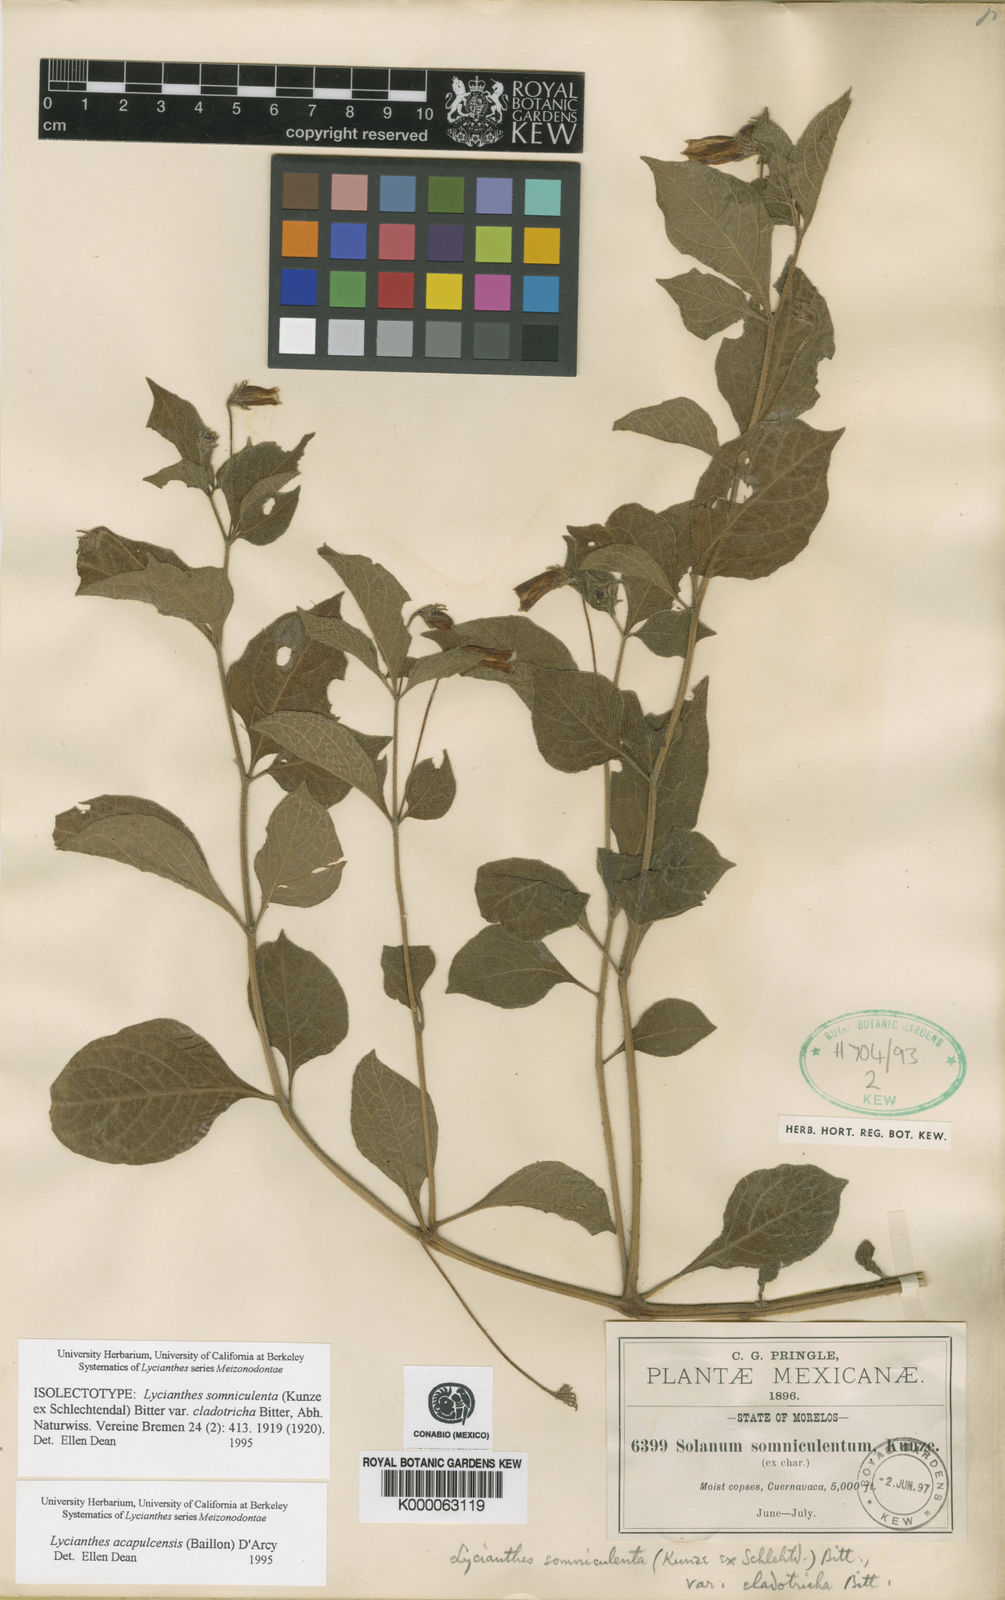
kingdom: Plantae
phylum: Tracheophyta
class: Magnoliopsida
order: Solanales
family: Solanaceae
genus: Lycianthes
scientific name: Lycianthes acapulcensis
